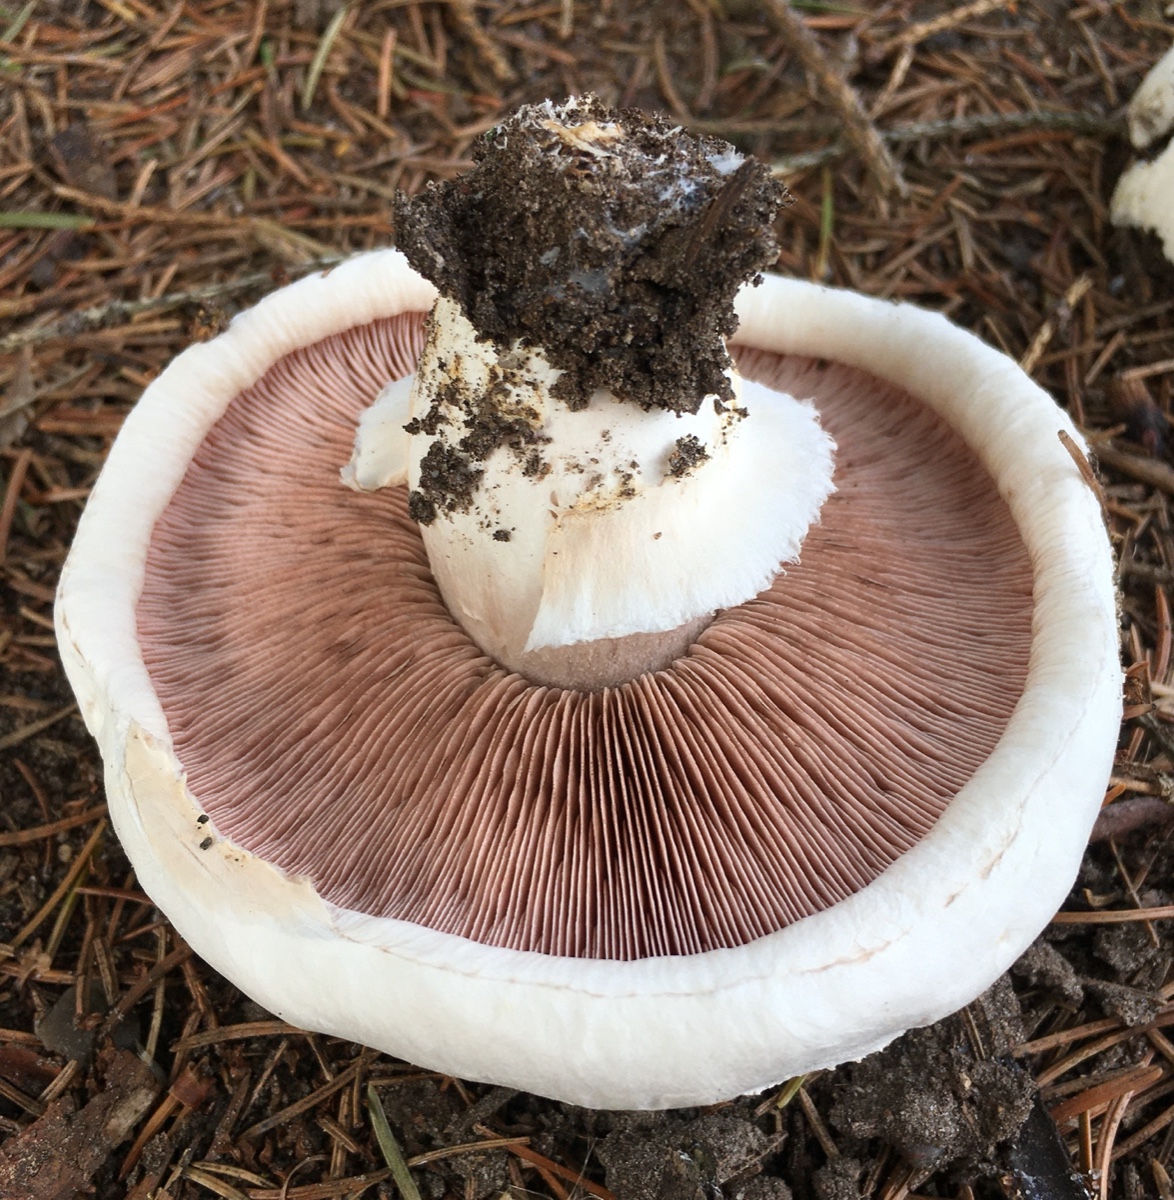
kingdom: Fungi
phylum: Basidiomycota
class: Agaricomycetes
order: Agaricales
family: Agaricaceae
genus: Agaricus
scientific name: Agaricus bernardii
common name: strandengs-champignon
